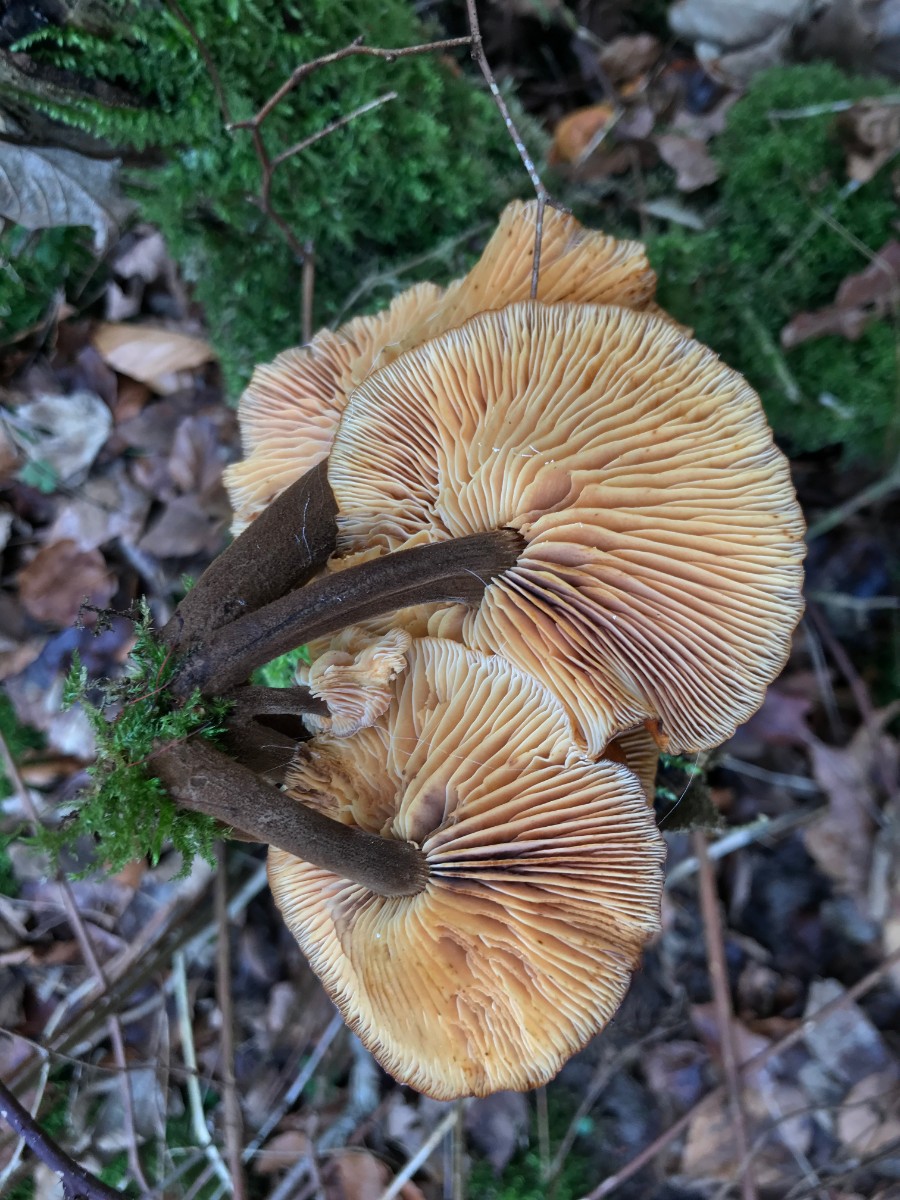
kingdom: Fungi
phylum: Basidiomycota
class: Agaricomycetes
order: Agaricales
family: Physalacriaceae
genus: Flammulina
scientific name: Flammulina velutipes
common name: gul fløjlsfod
